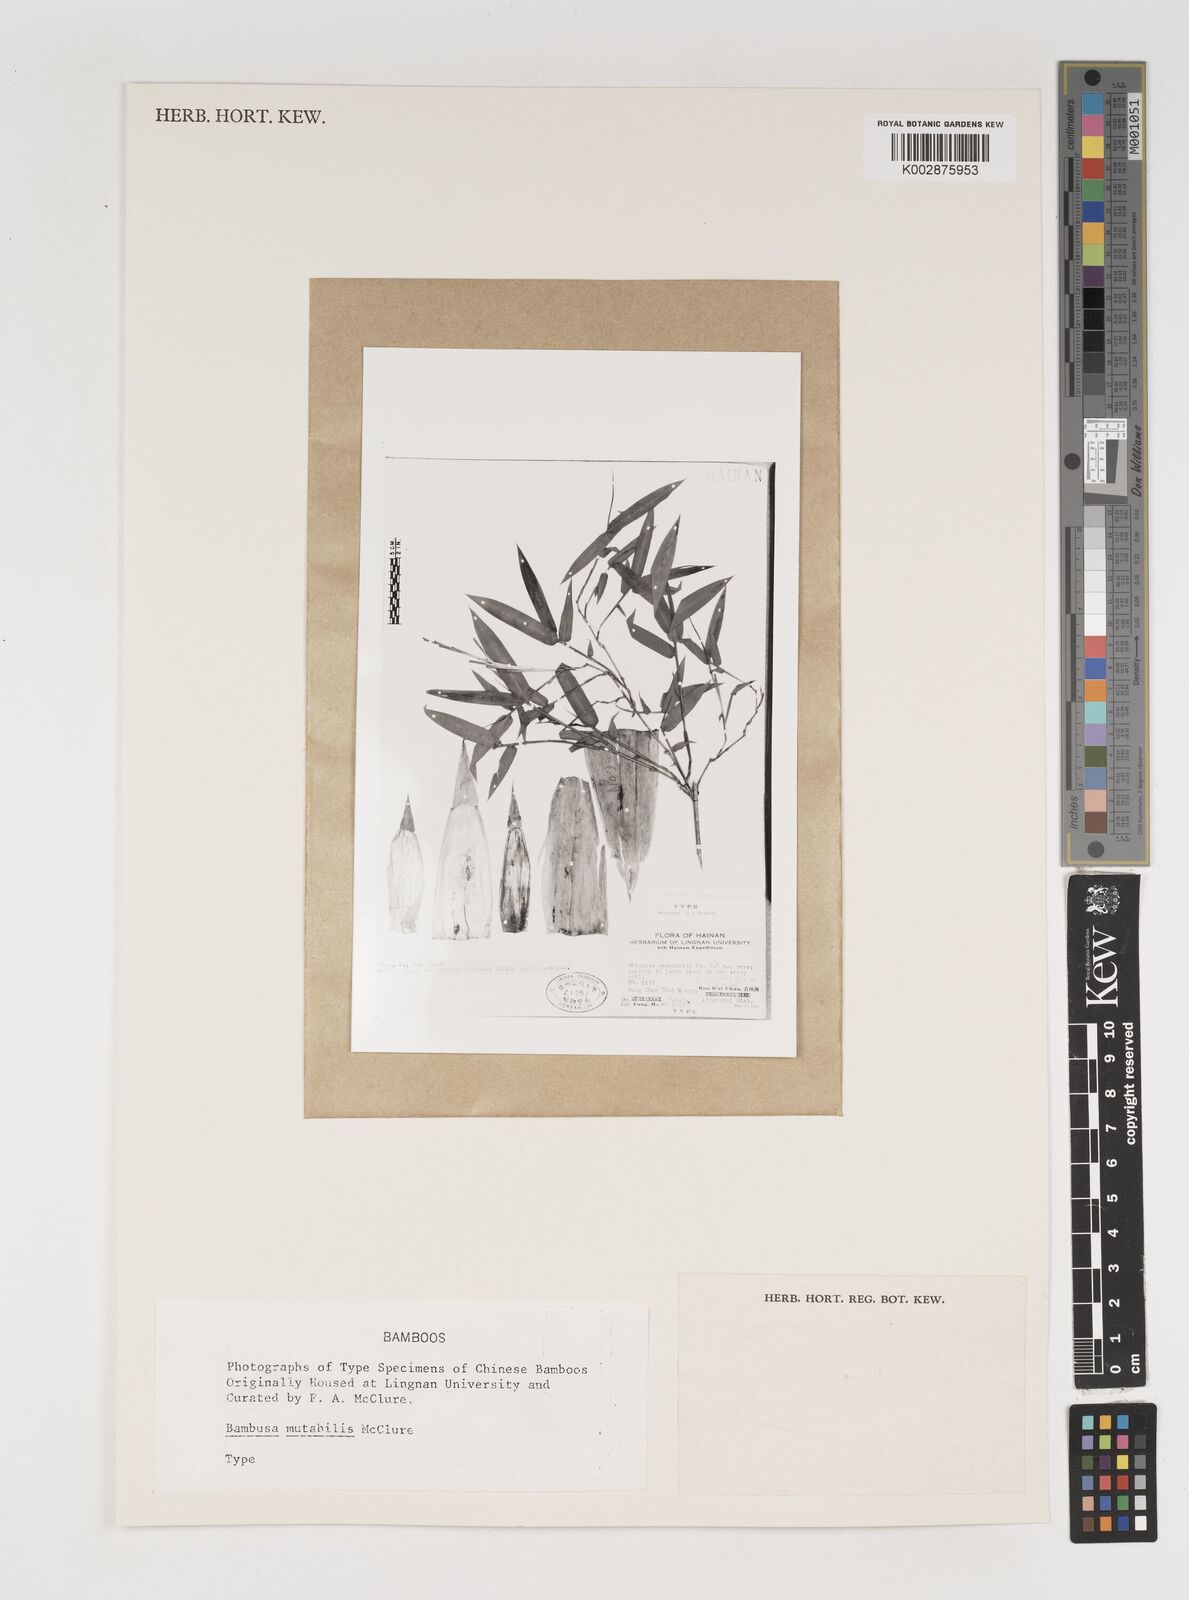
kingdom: Plantae
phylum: Tracheophyta
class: Liliopsida
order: Poales
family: Poaceae
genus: Bambusa
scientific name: Bambusa mutabilis
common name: Lesser yellow bamboo
